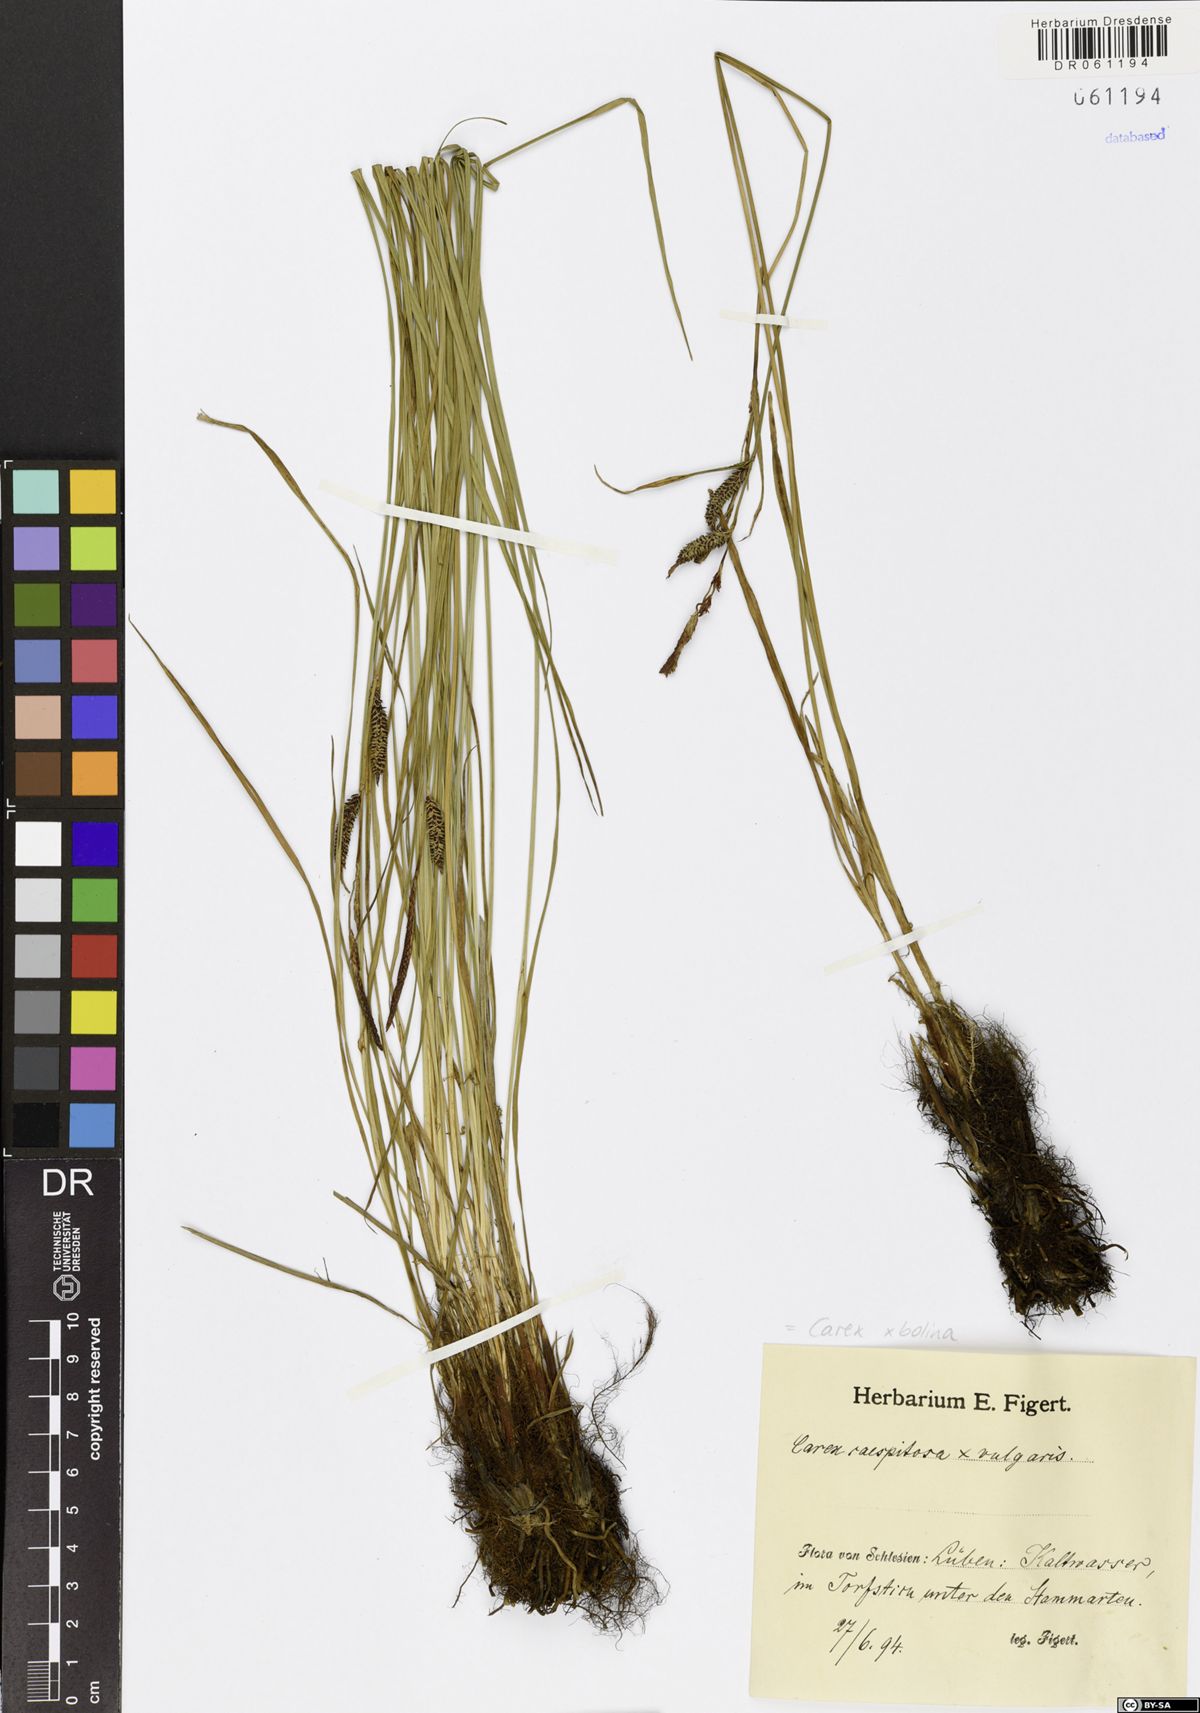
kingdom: Plantae
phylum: Tracheophyta
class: Liliopsida
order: Poales
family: Cyperaceae
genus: Carex
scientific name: Carex bolina
